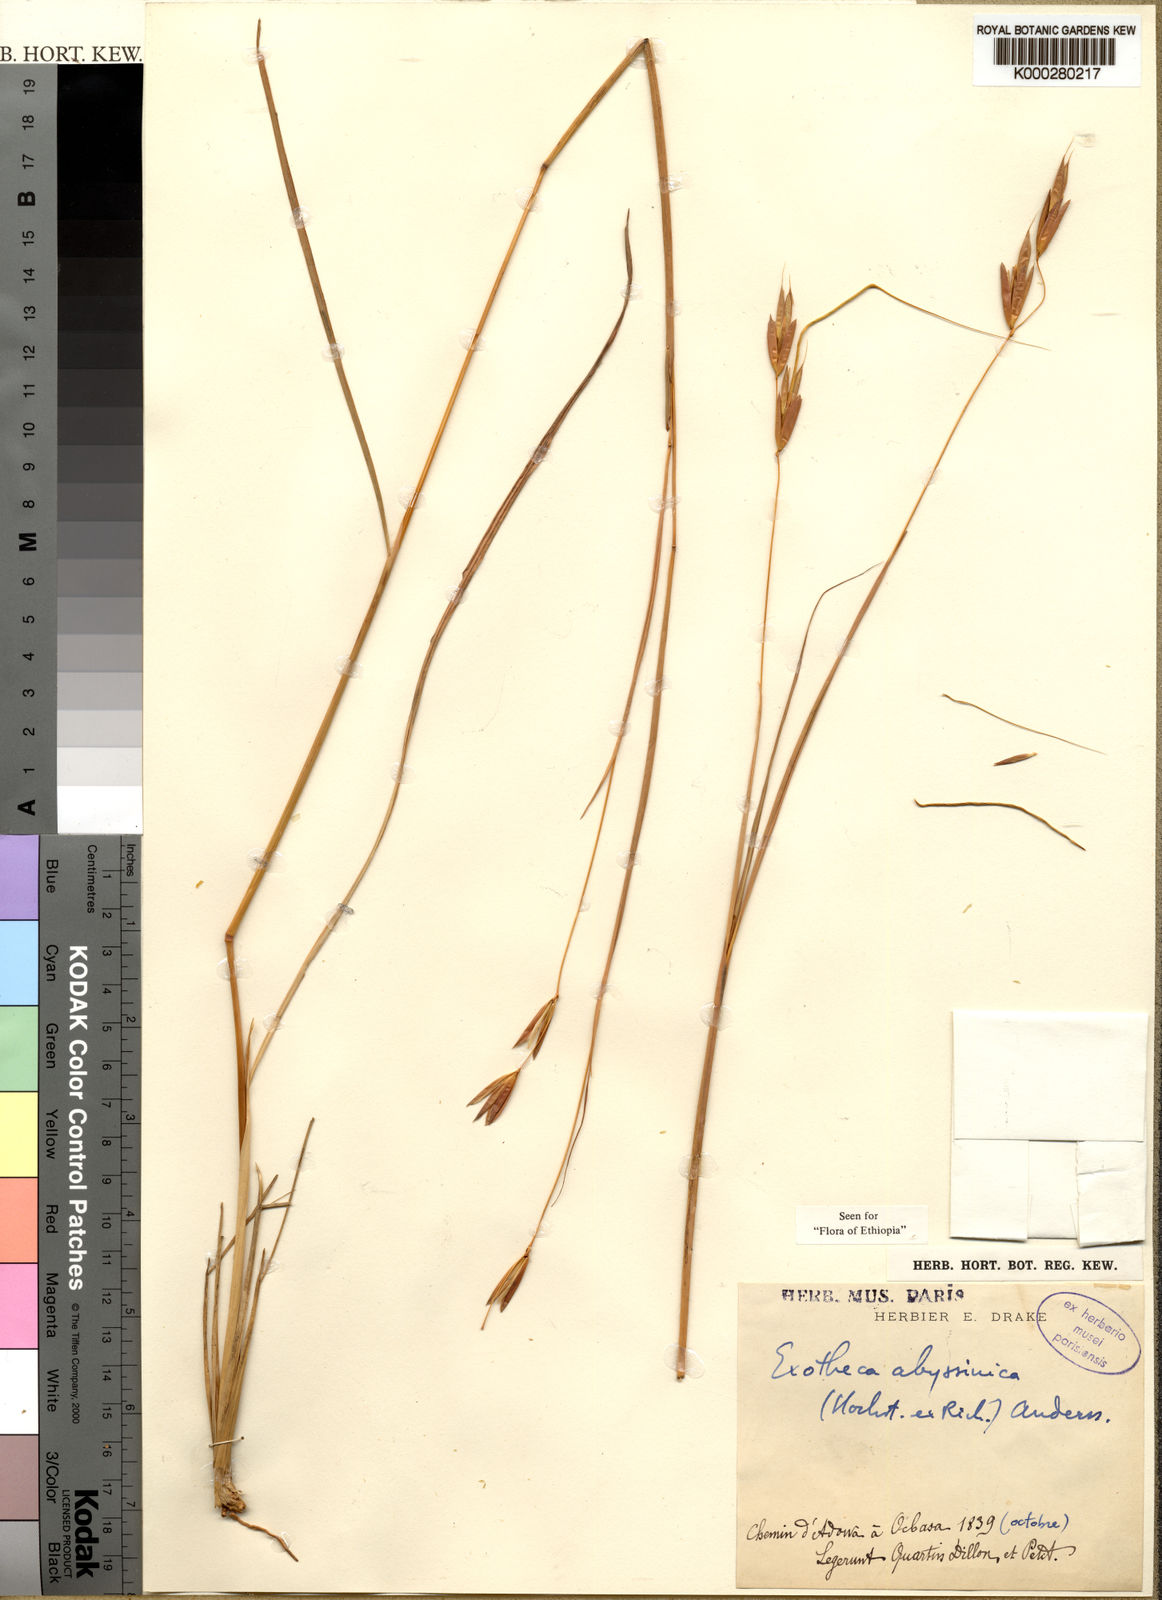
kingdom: Plantae
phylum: Tracheophyta
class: Liliopsida
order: Poales
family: Poaceae
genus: Exotheca
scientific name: Exotheca abyssinica
